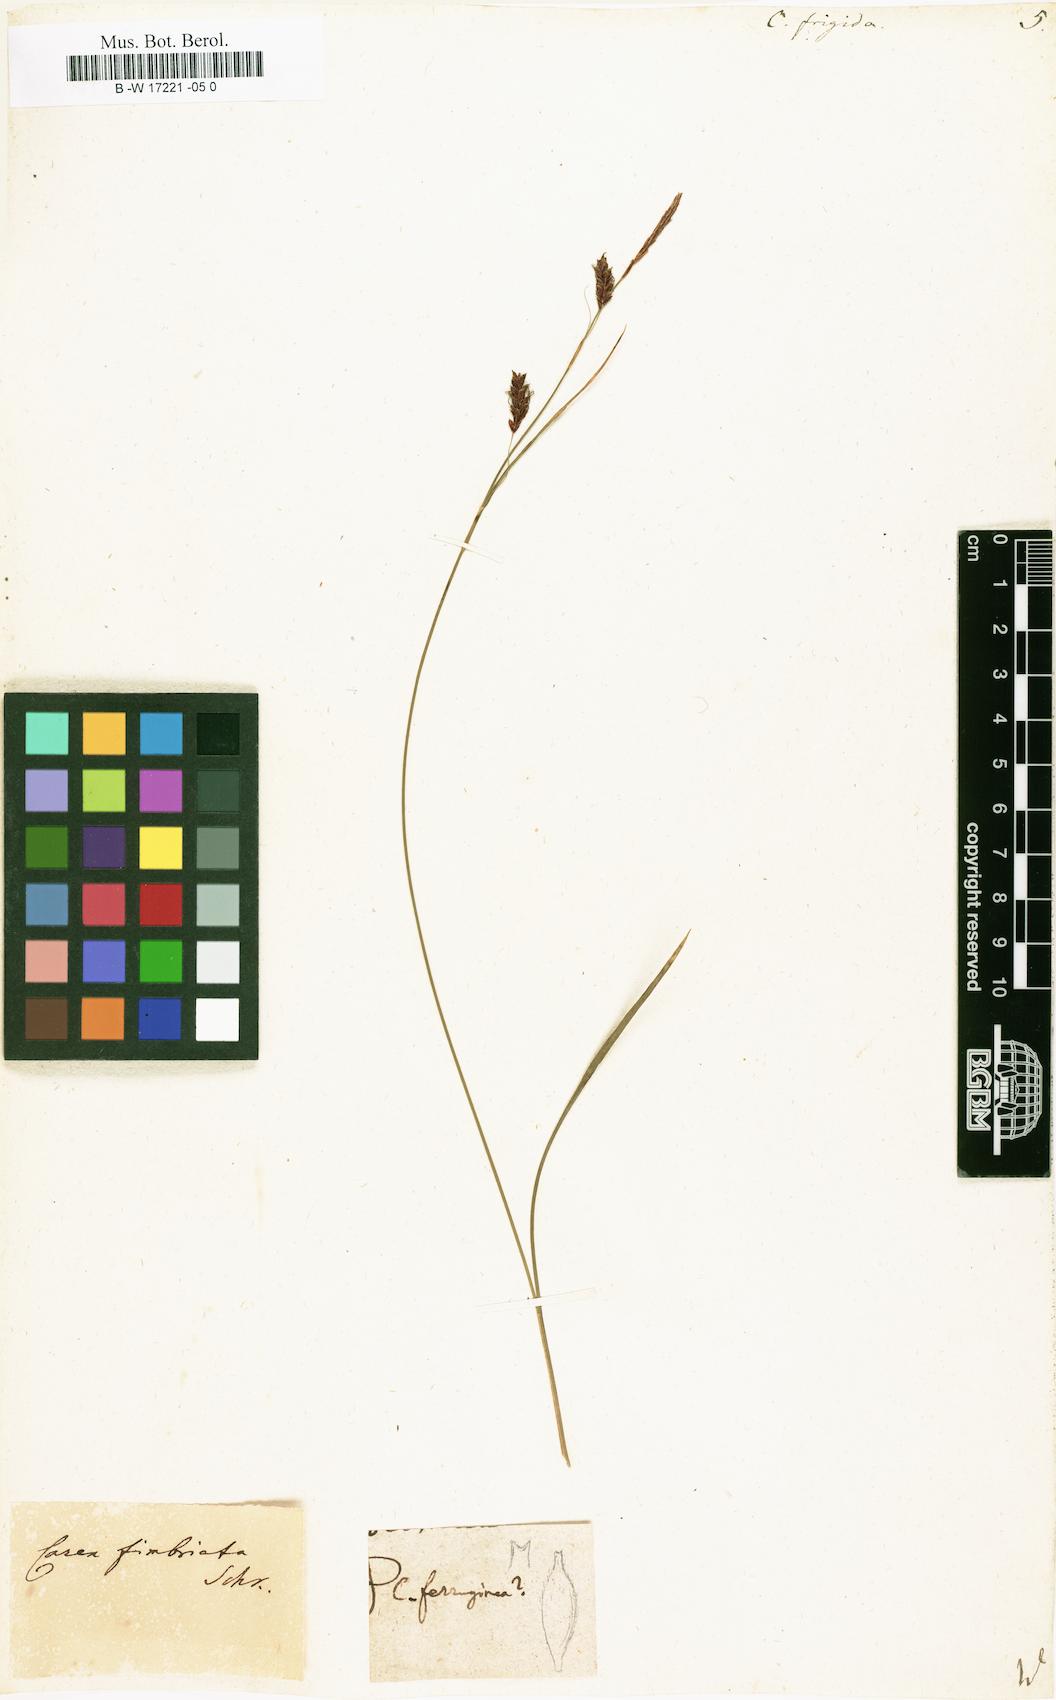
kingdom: Plantae
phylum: Tracheophyta
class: Liliopsida
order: Poales
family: Cyperaceae
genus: Carex
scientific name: Carex frigida
